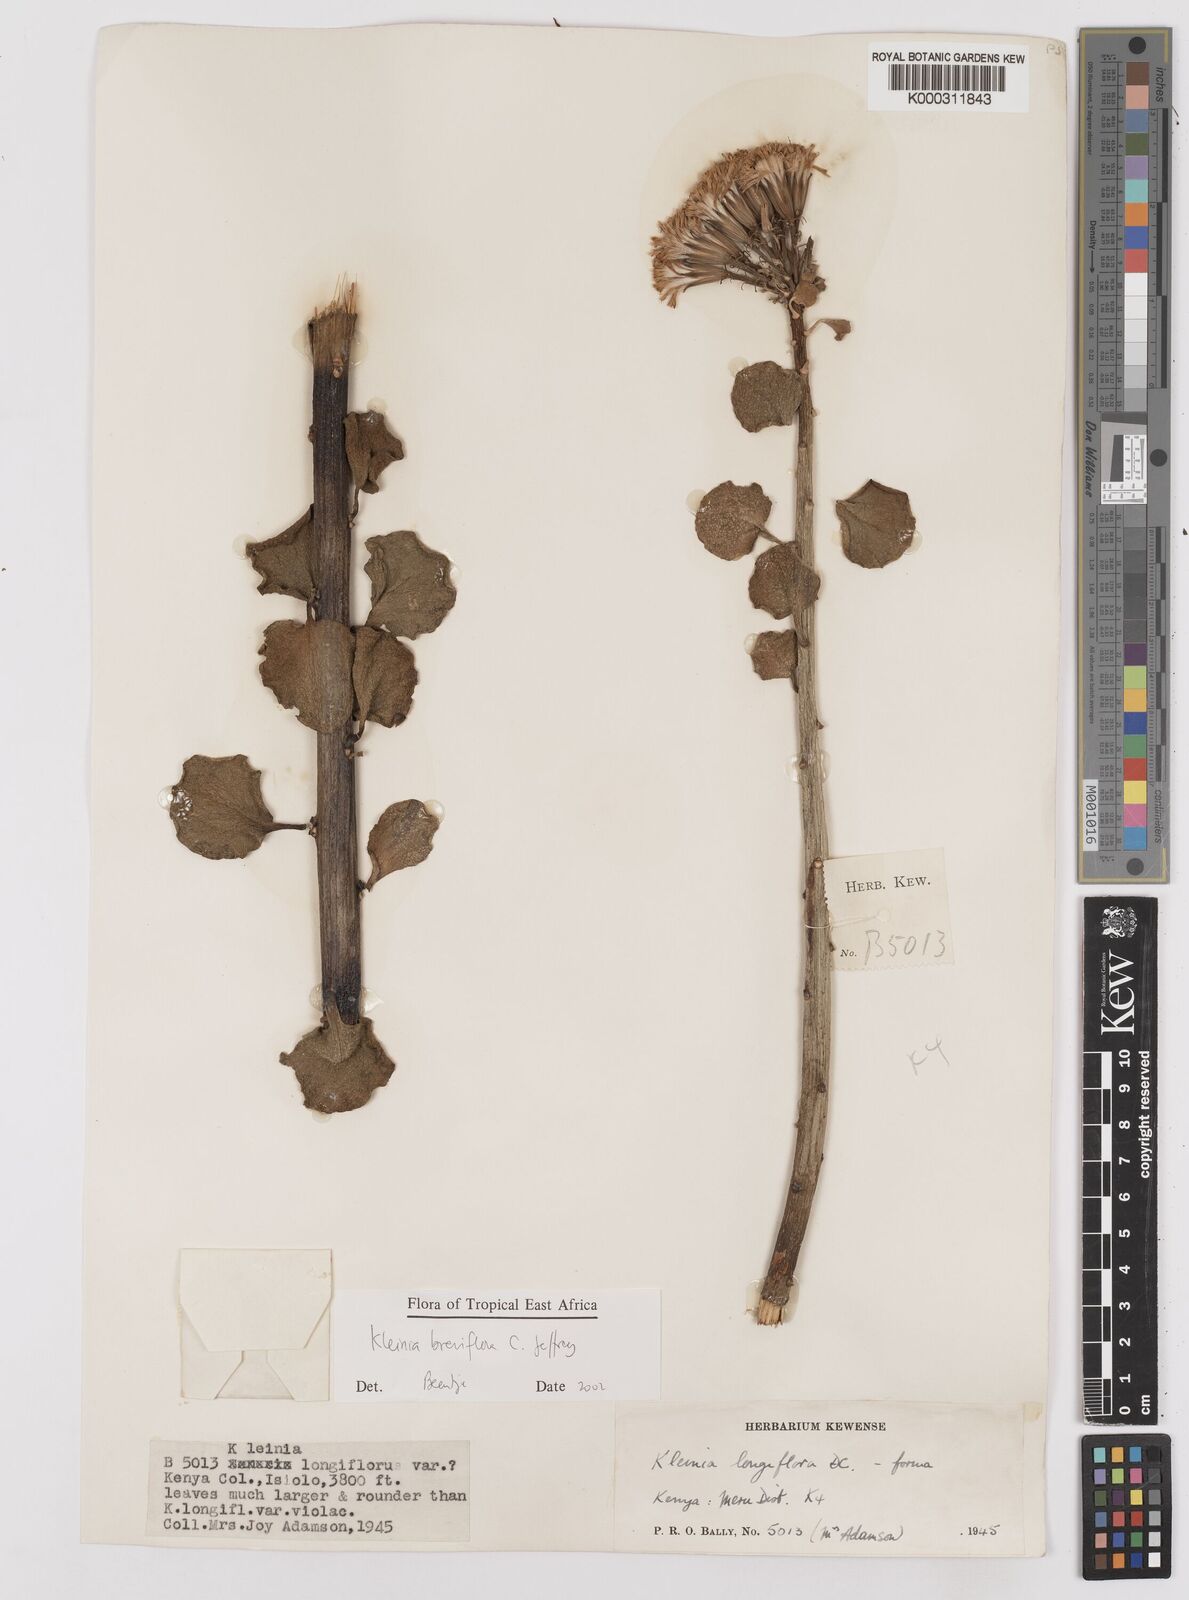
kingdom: Plantae
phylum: Tracheophyta
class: Magnoliopsida
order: Asterales
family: Asteraceae
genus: Kleinia
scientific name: Kleinia polycotoma
